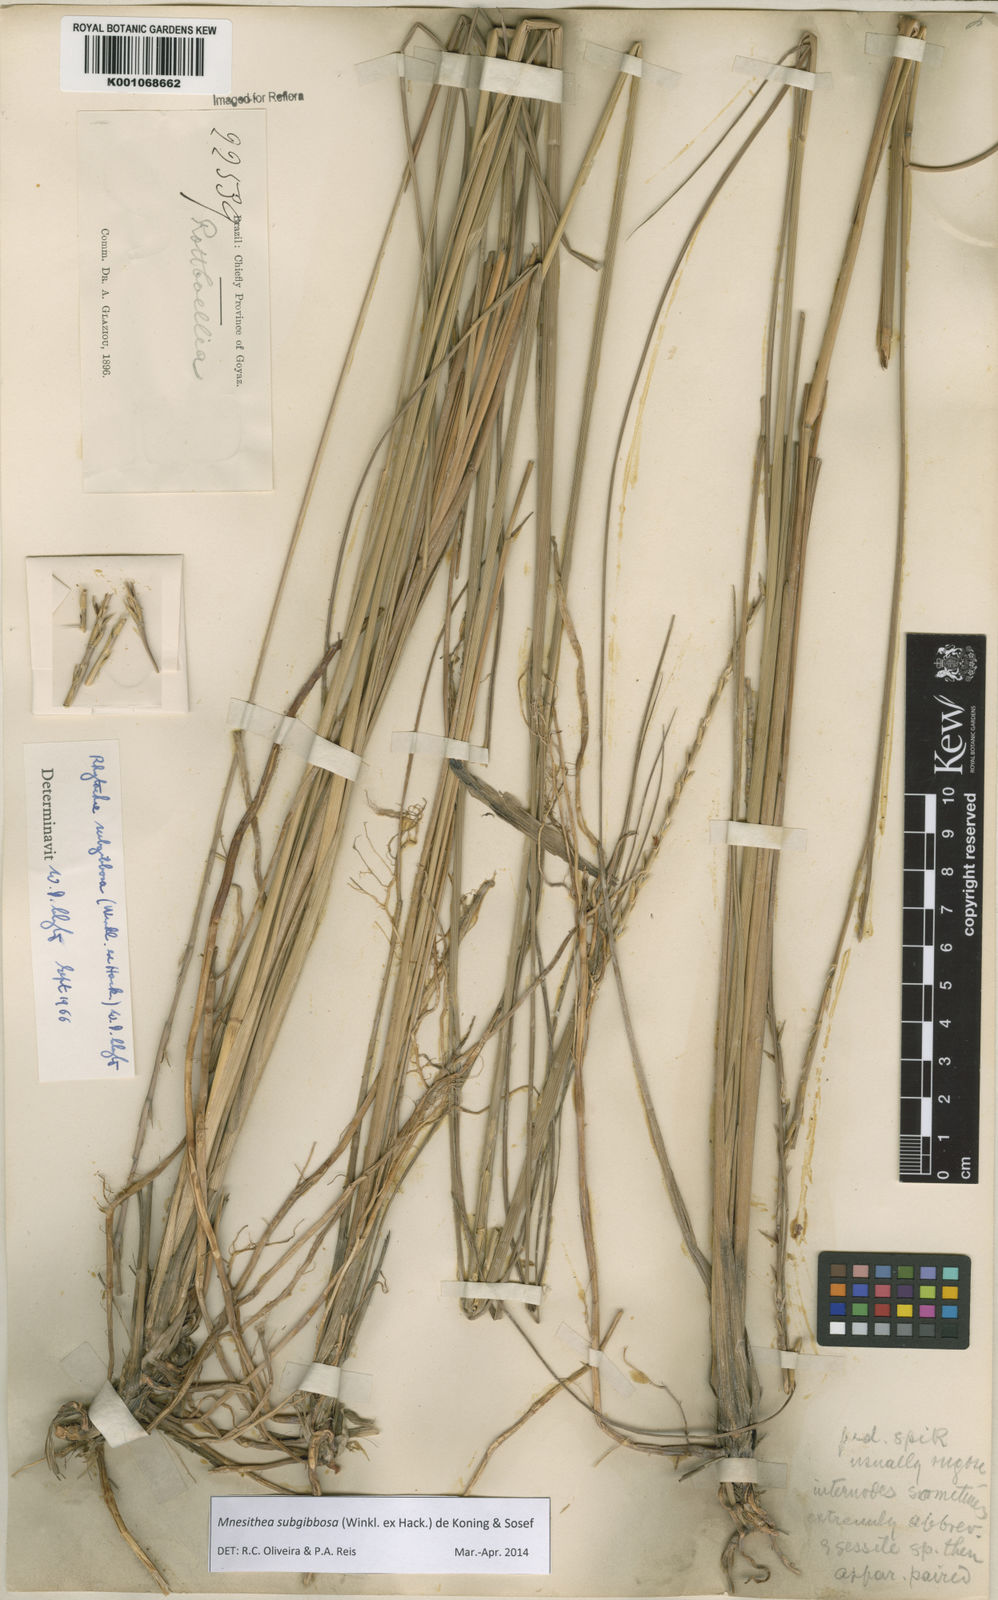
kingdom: Plantae
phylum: Tracheophyta
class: Liliopsida
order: Poales
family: Poaceae
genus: Rhytachne
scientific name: Rhytachne subgibbosa
